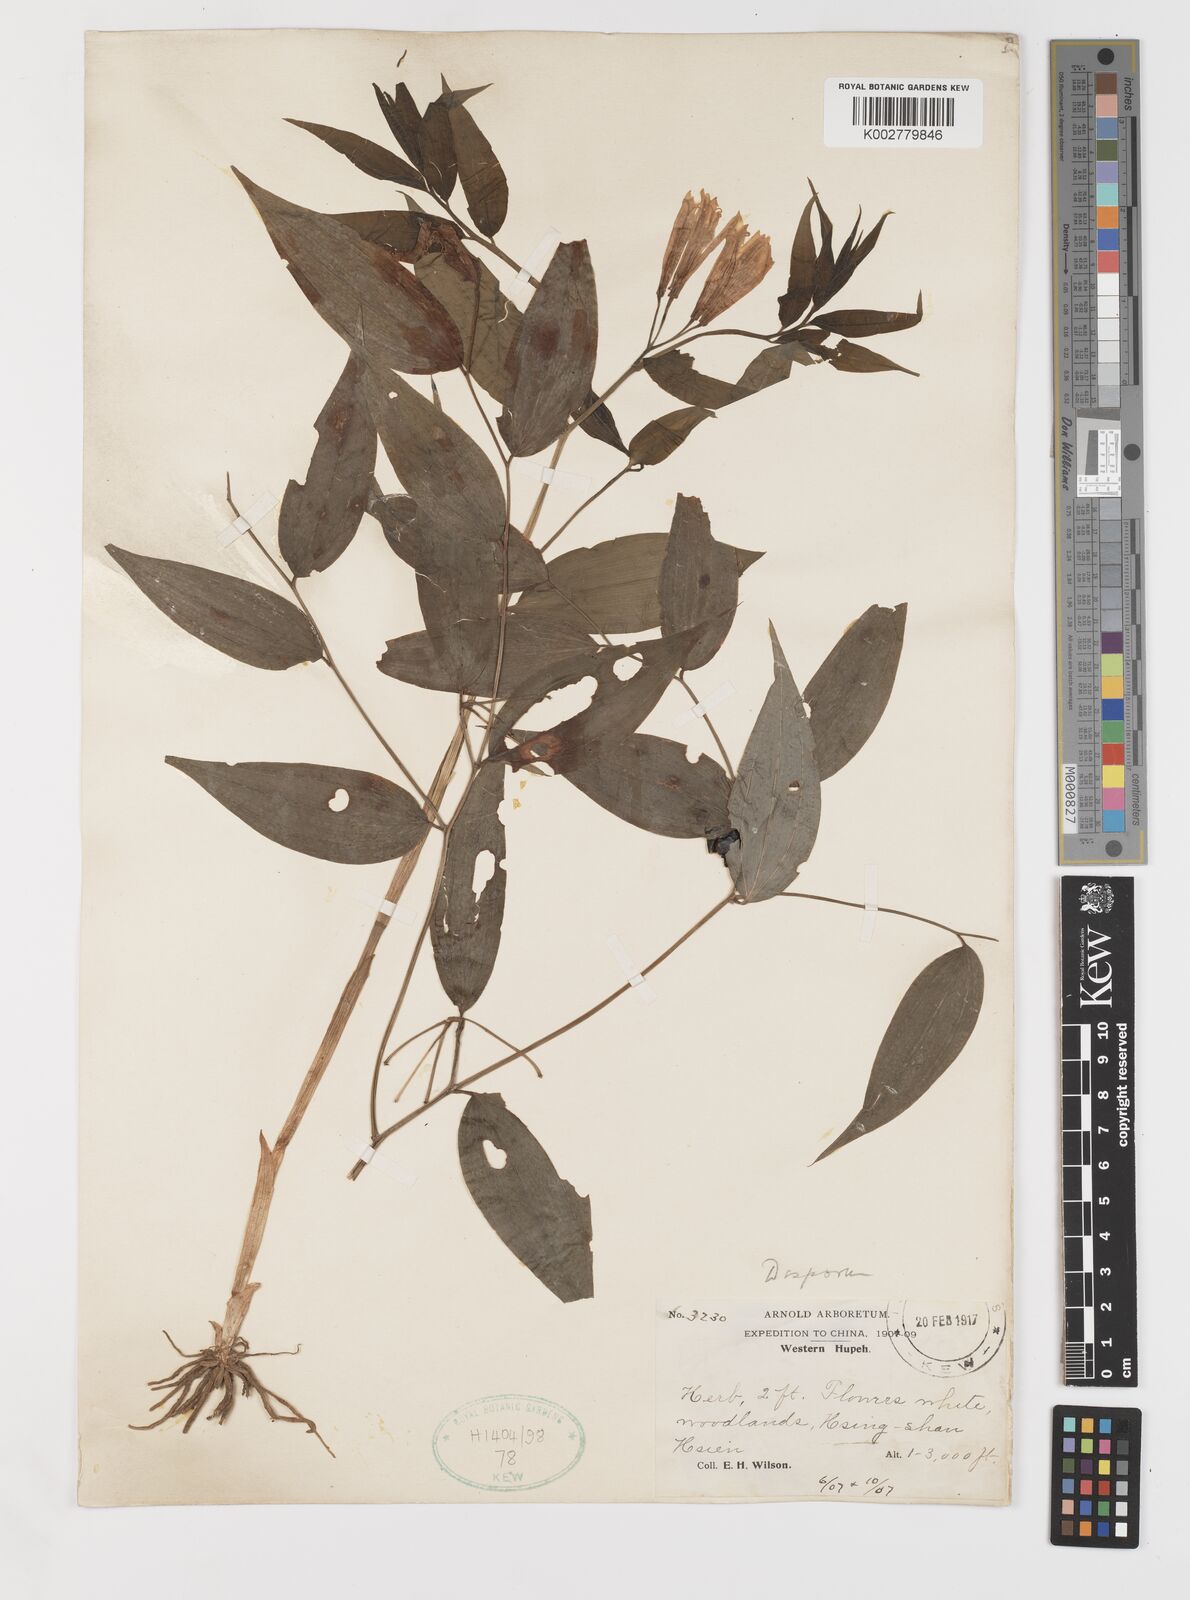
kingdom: Plantae
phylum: Tracheophyta
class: Liliopsida
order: Liliales
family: Colchicaceae
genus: Disporum
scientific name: Disporum sessile
